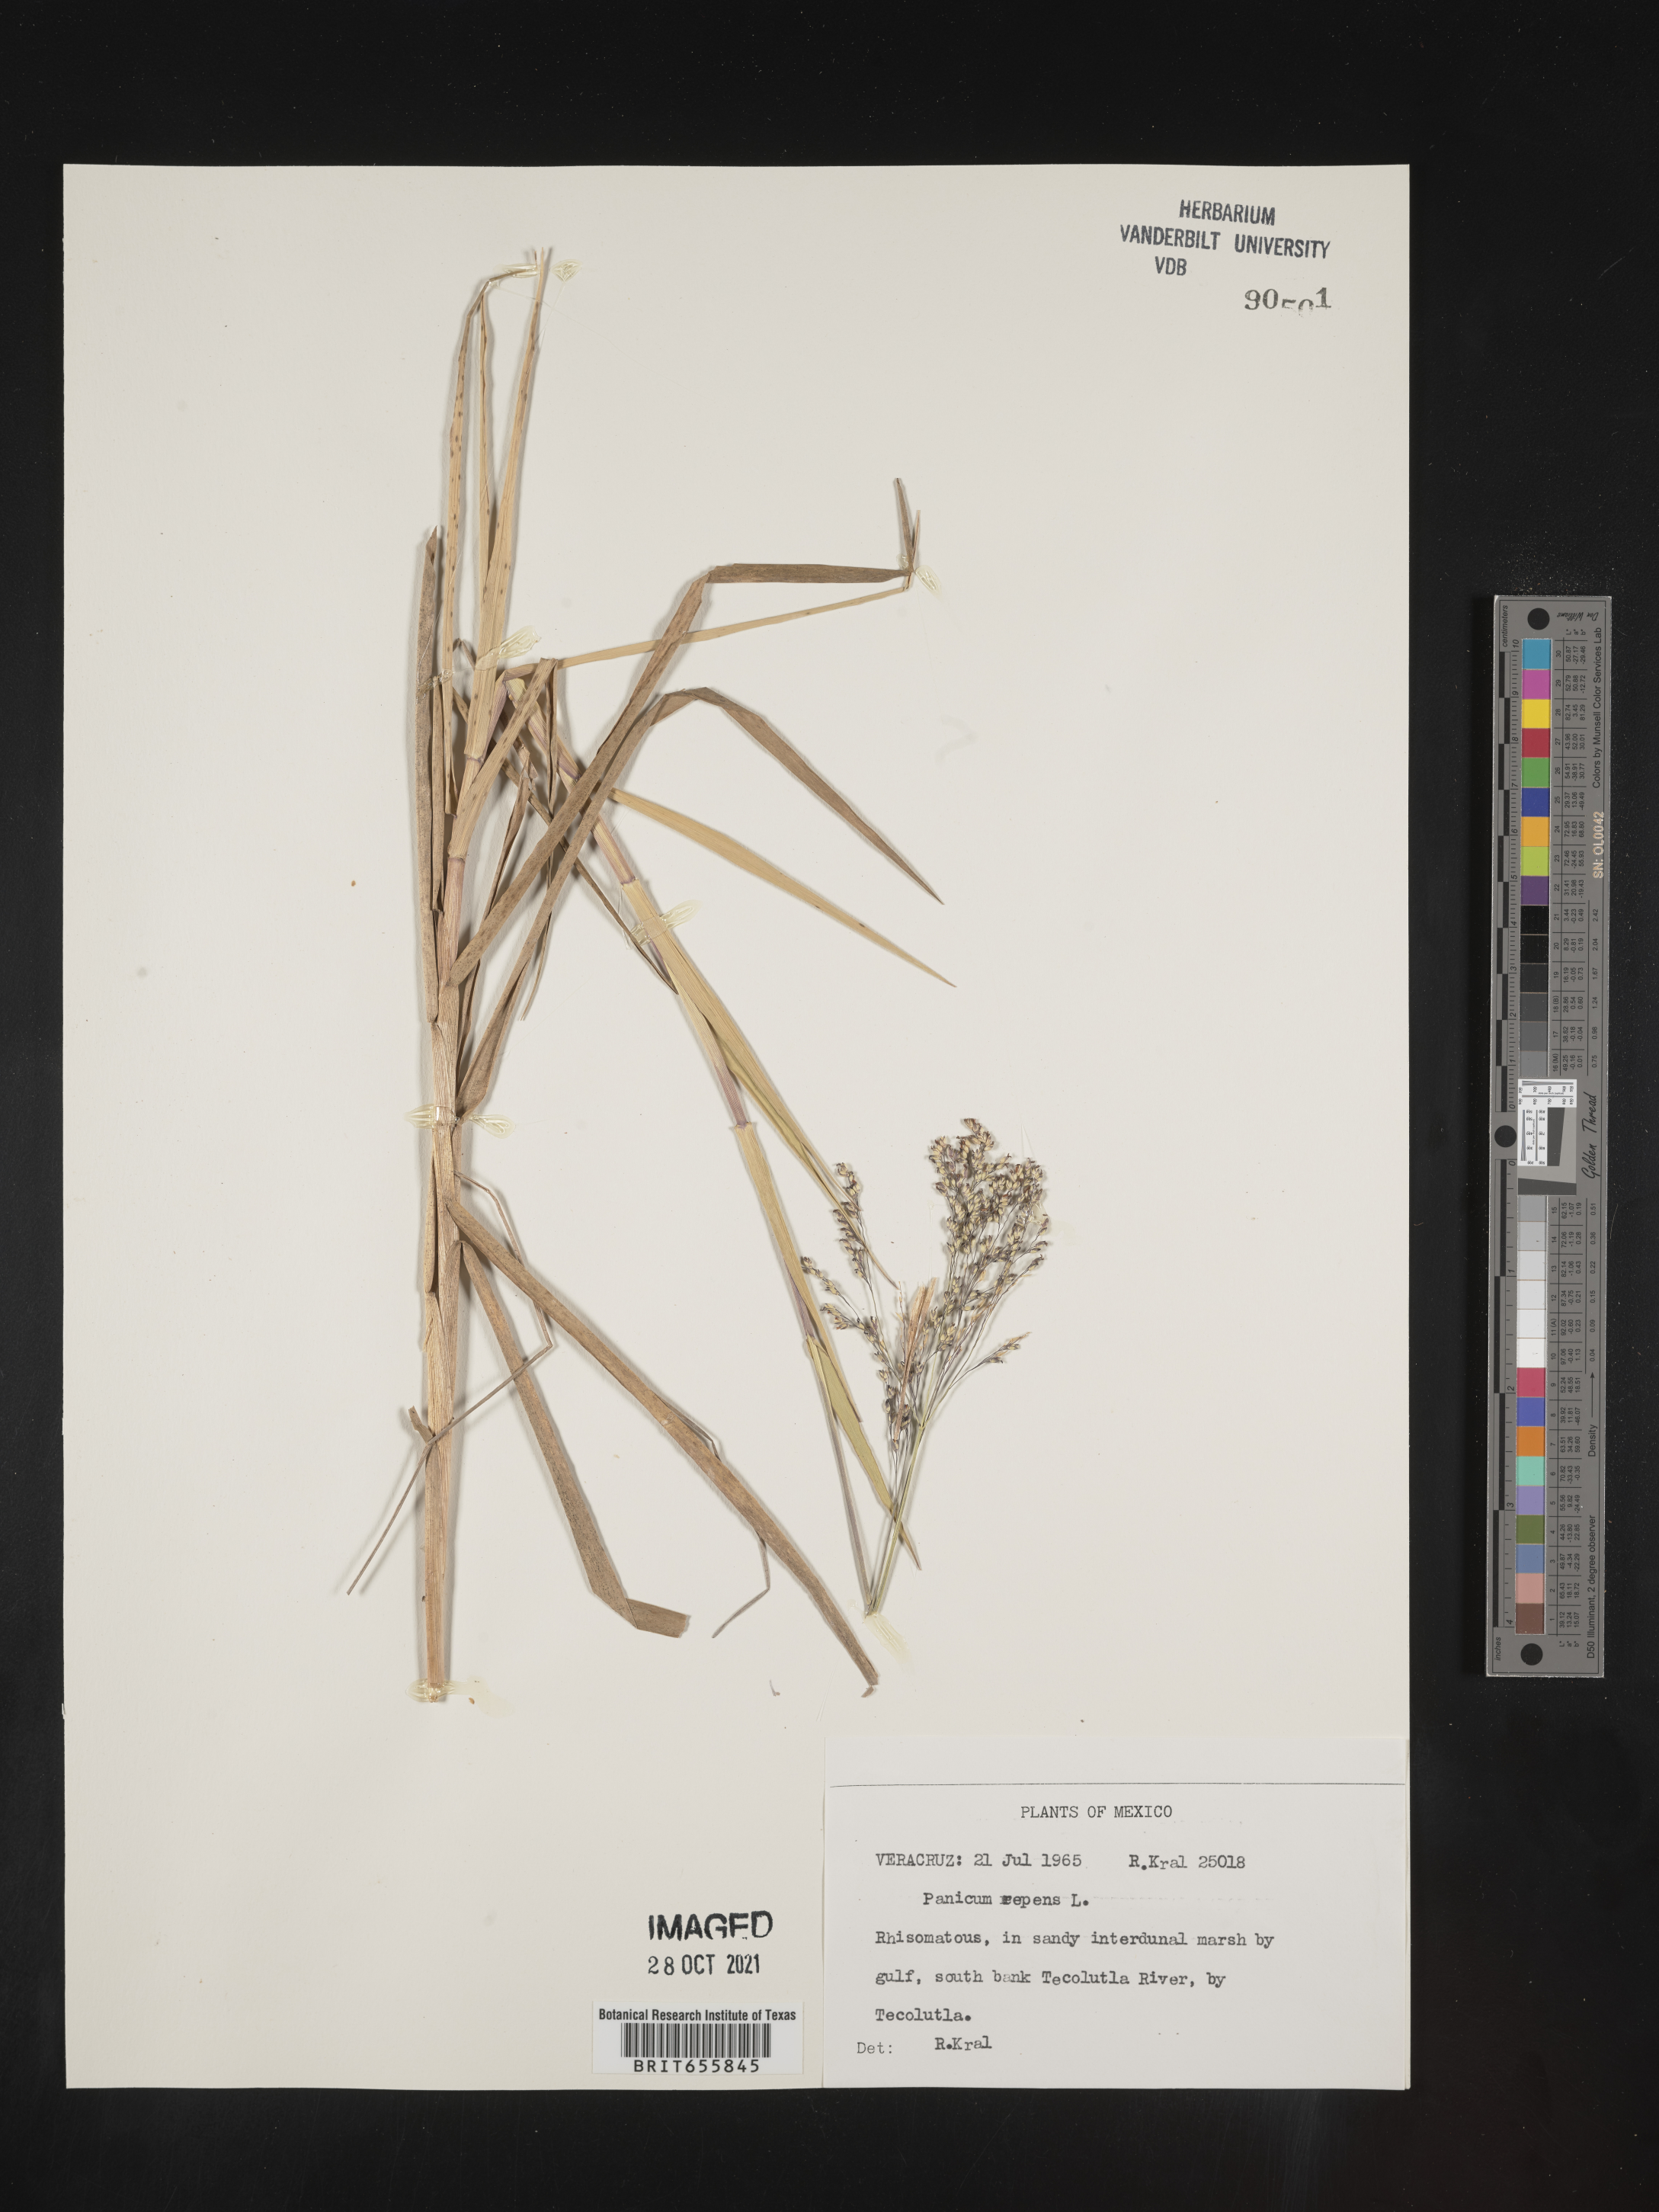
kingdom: Plantae
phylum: Tracheophyta
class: Liliopsida
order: Poales
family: Poaceae
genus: Panicum
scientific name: Panicum
